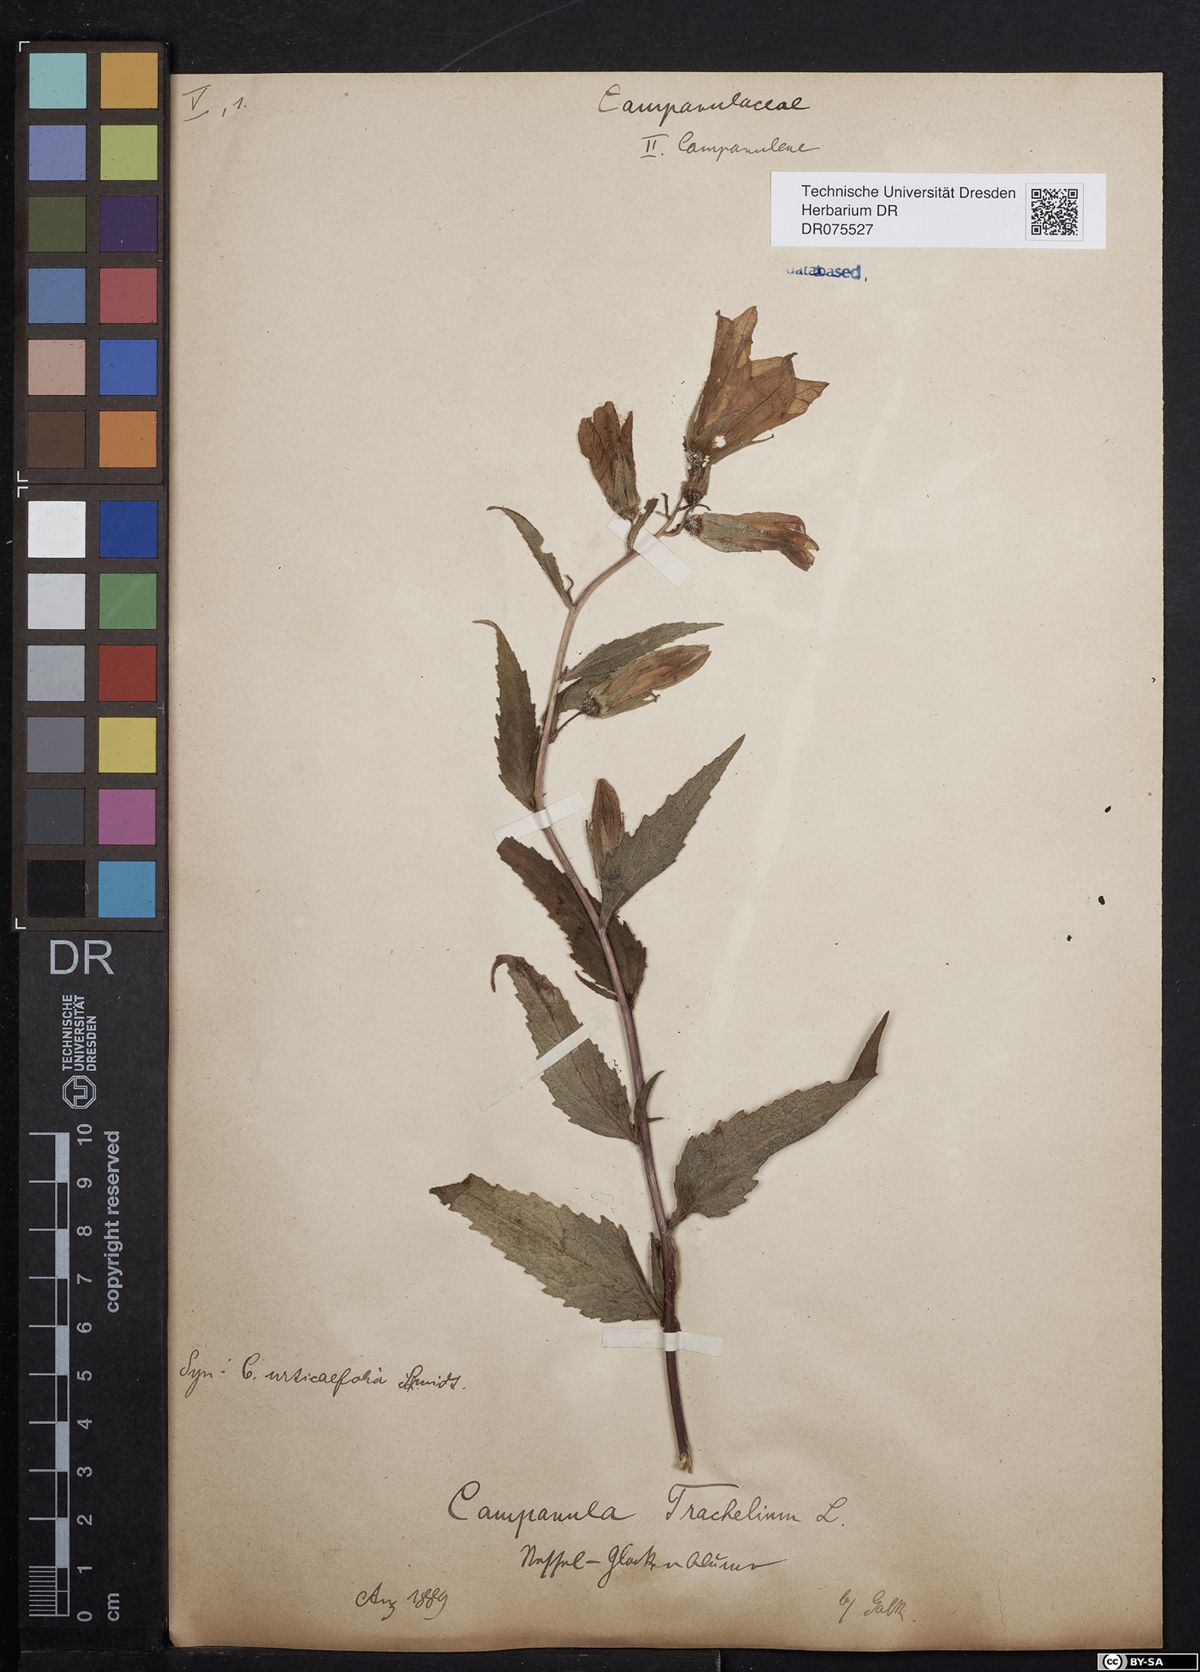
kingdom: Plantae
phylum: Tracheophyta
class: Magnoliopsida
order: Asterales
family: Campanulaceae
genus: Campanula
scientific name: Campanula trachelium
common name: Nettle-leaved bellflower
